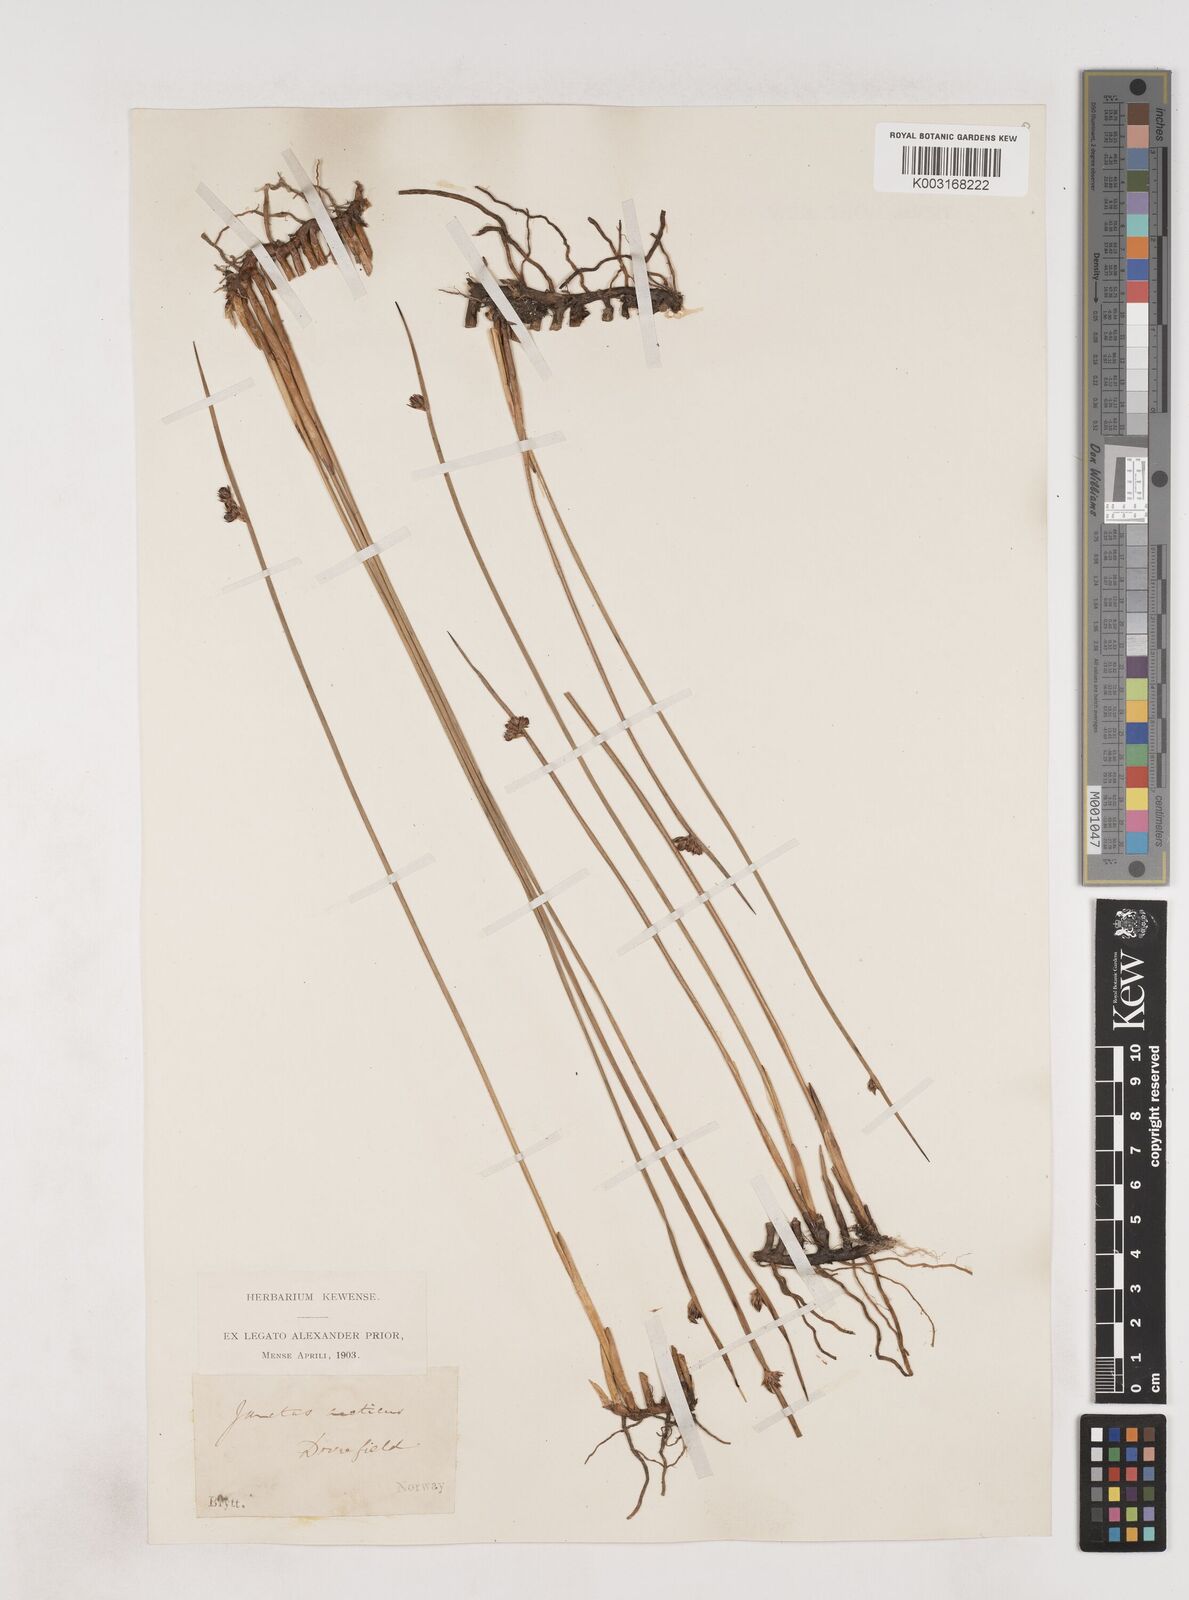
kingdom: Plantae
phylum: Tracheophyta
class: Liliopsida
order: Poales
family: Juncaceae
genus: Juncus
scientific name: Juncus arcticus
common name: Arctic rush
